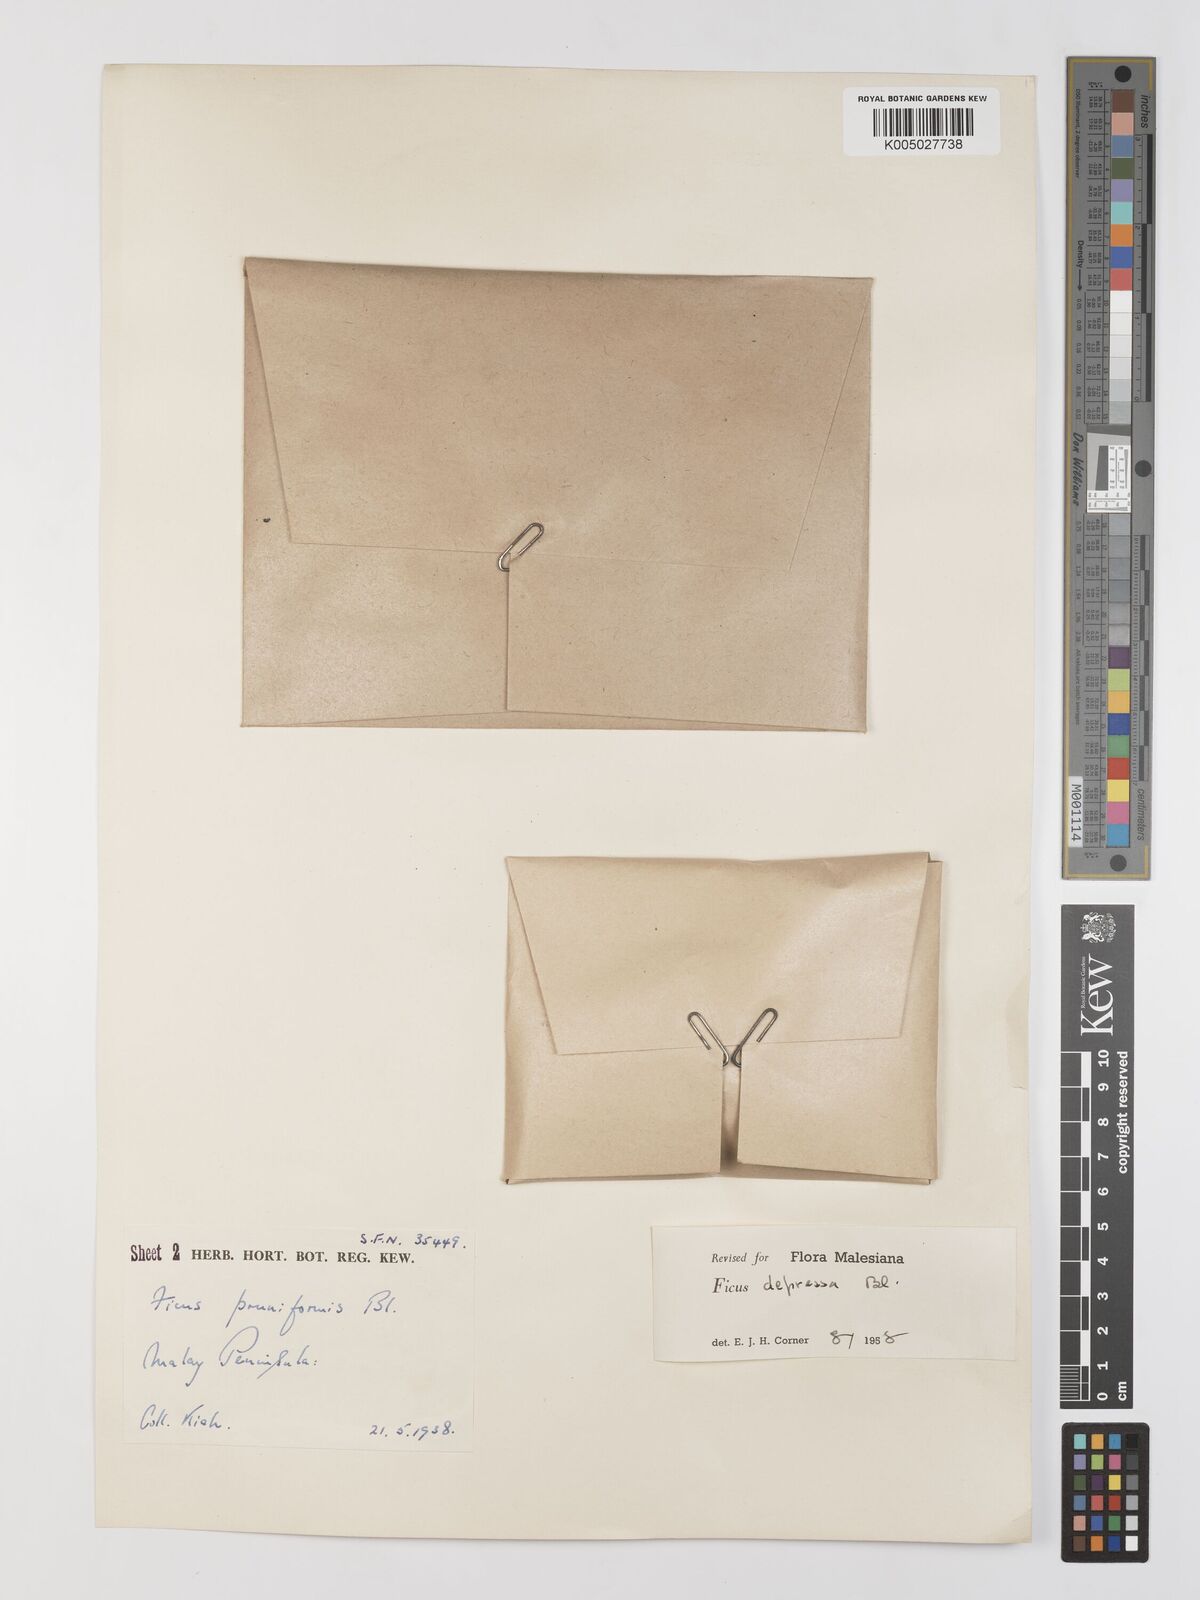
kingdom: Plantae
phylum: Tracheophyta
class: Magnoliopsida
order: Rosales
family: Moraceae
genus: Ficus
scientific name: Ficus
